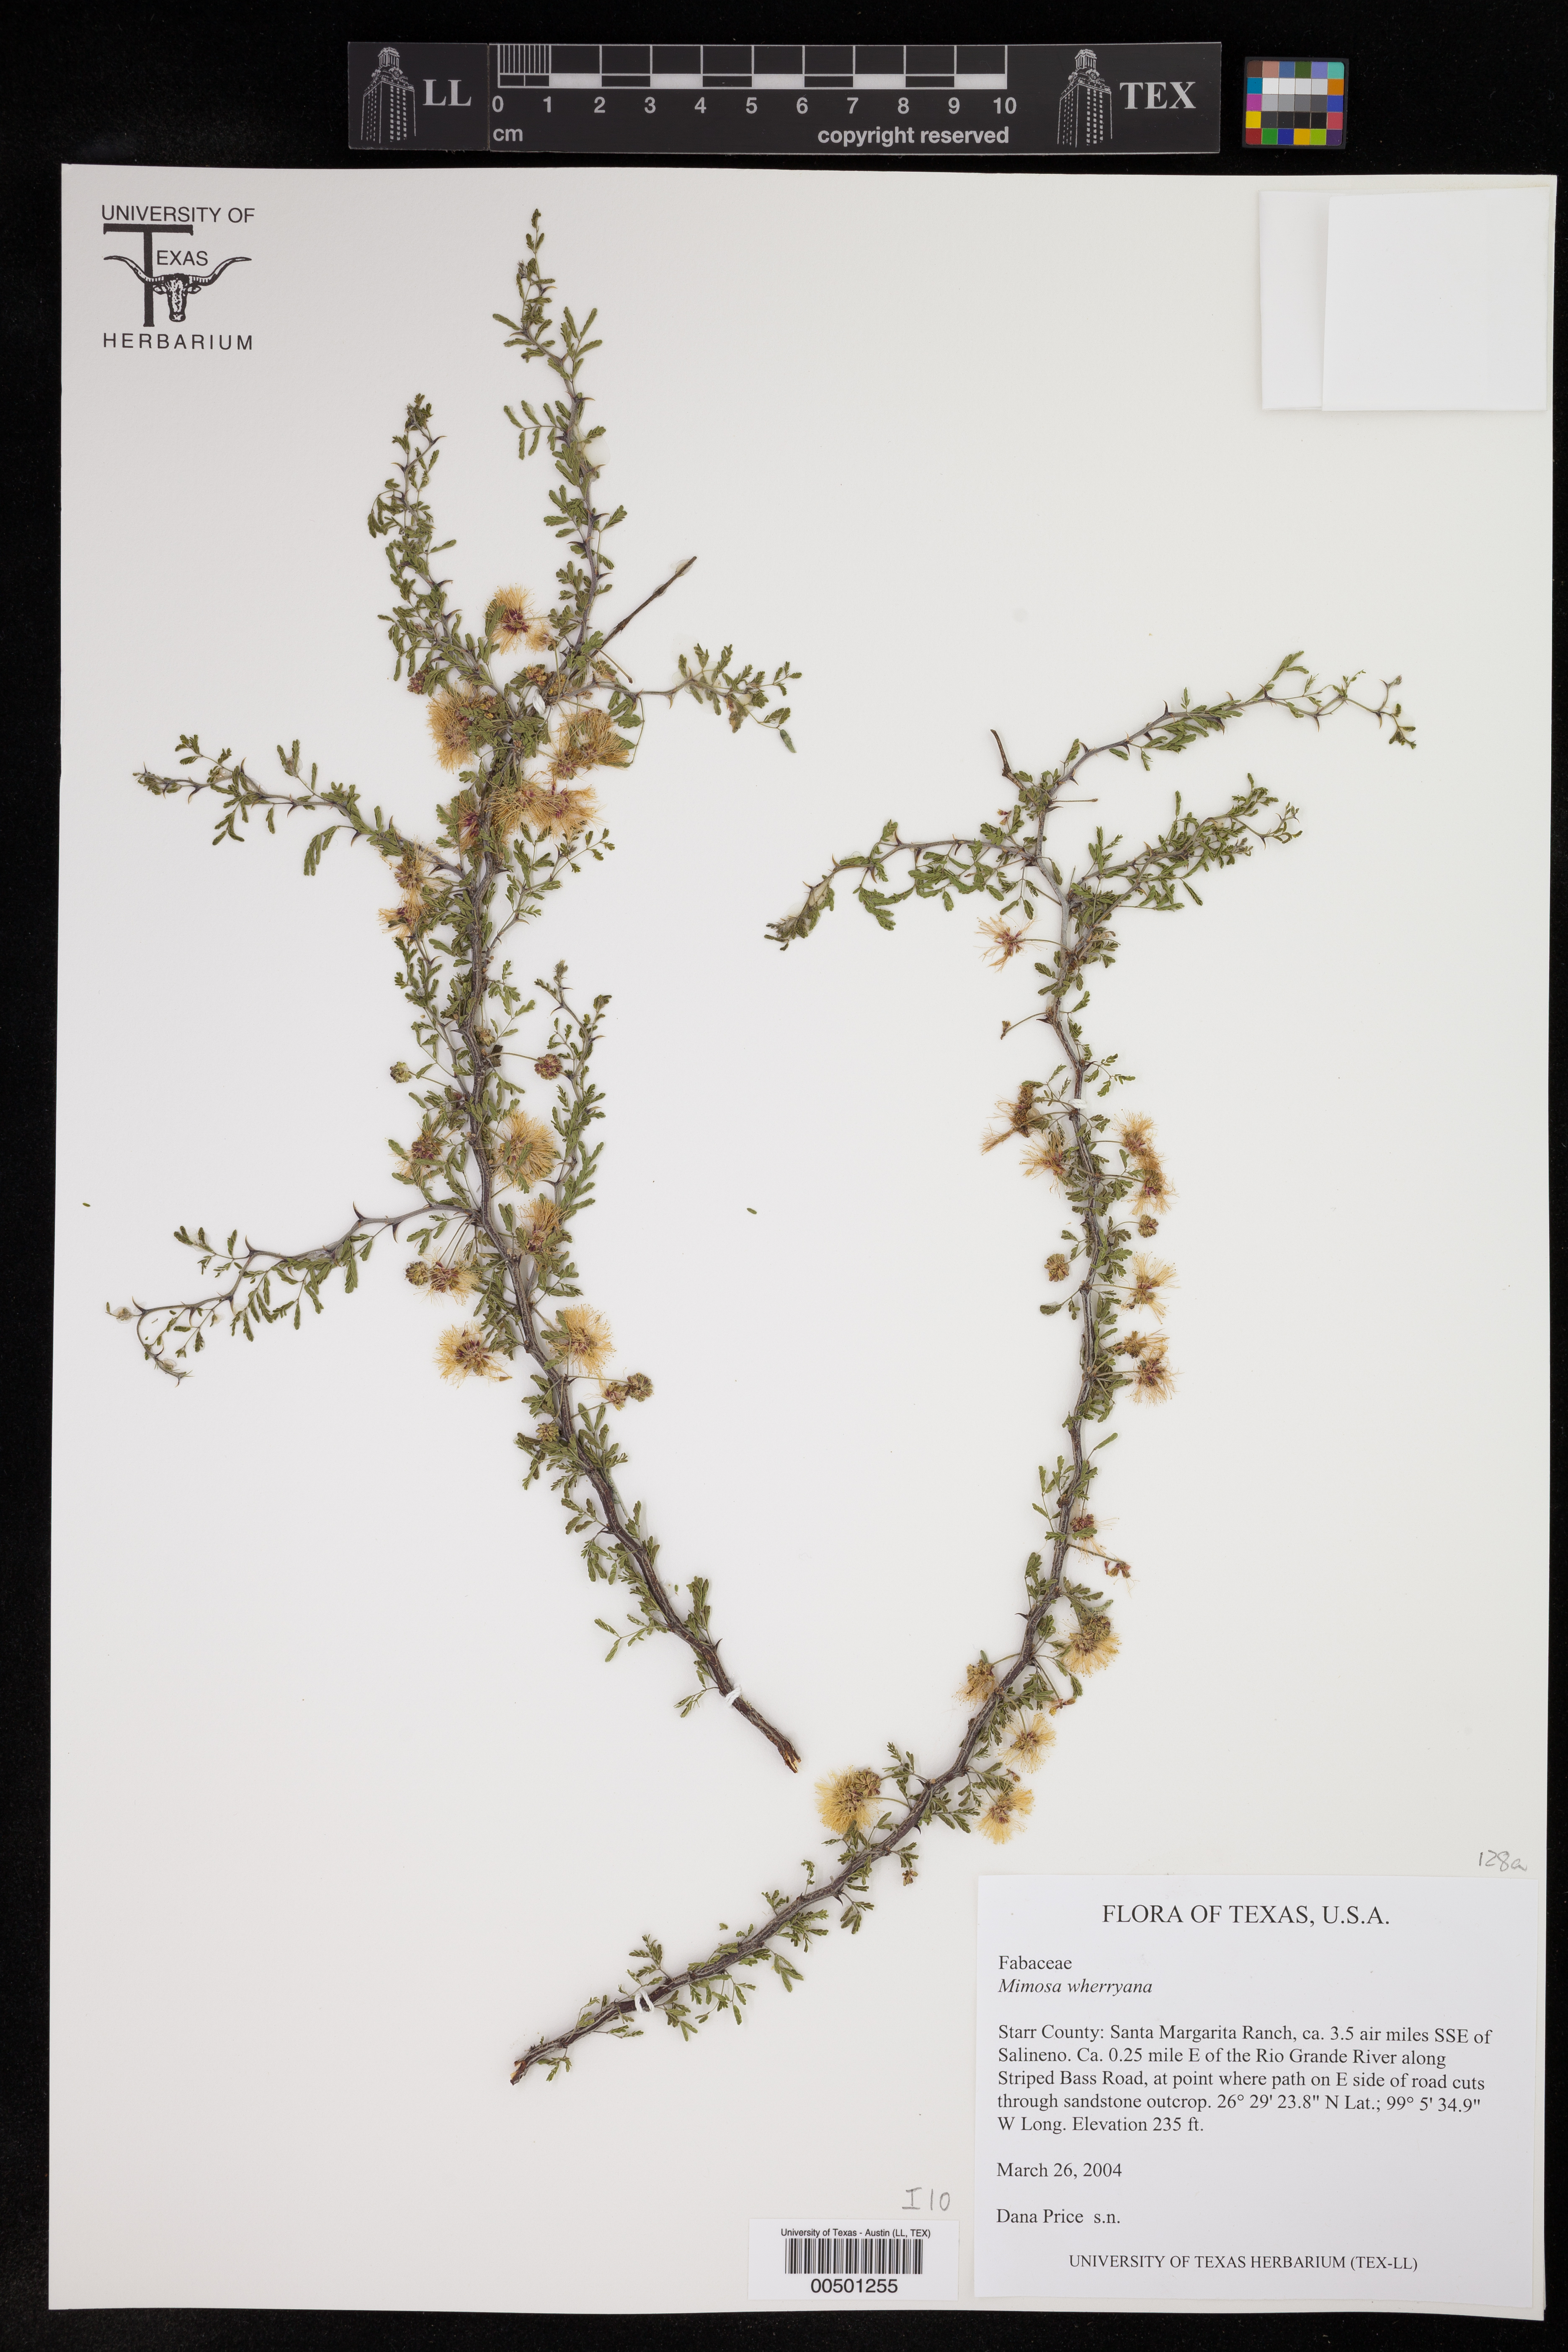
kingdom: Plantae
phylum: Tracheophyta
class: Magnoliopsida
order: Fabales
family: Fabaceae
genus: Mimosa
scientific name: Mimosa texana
